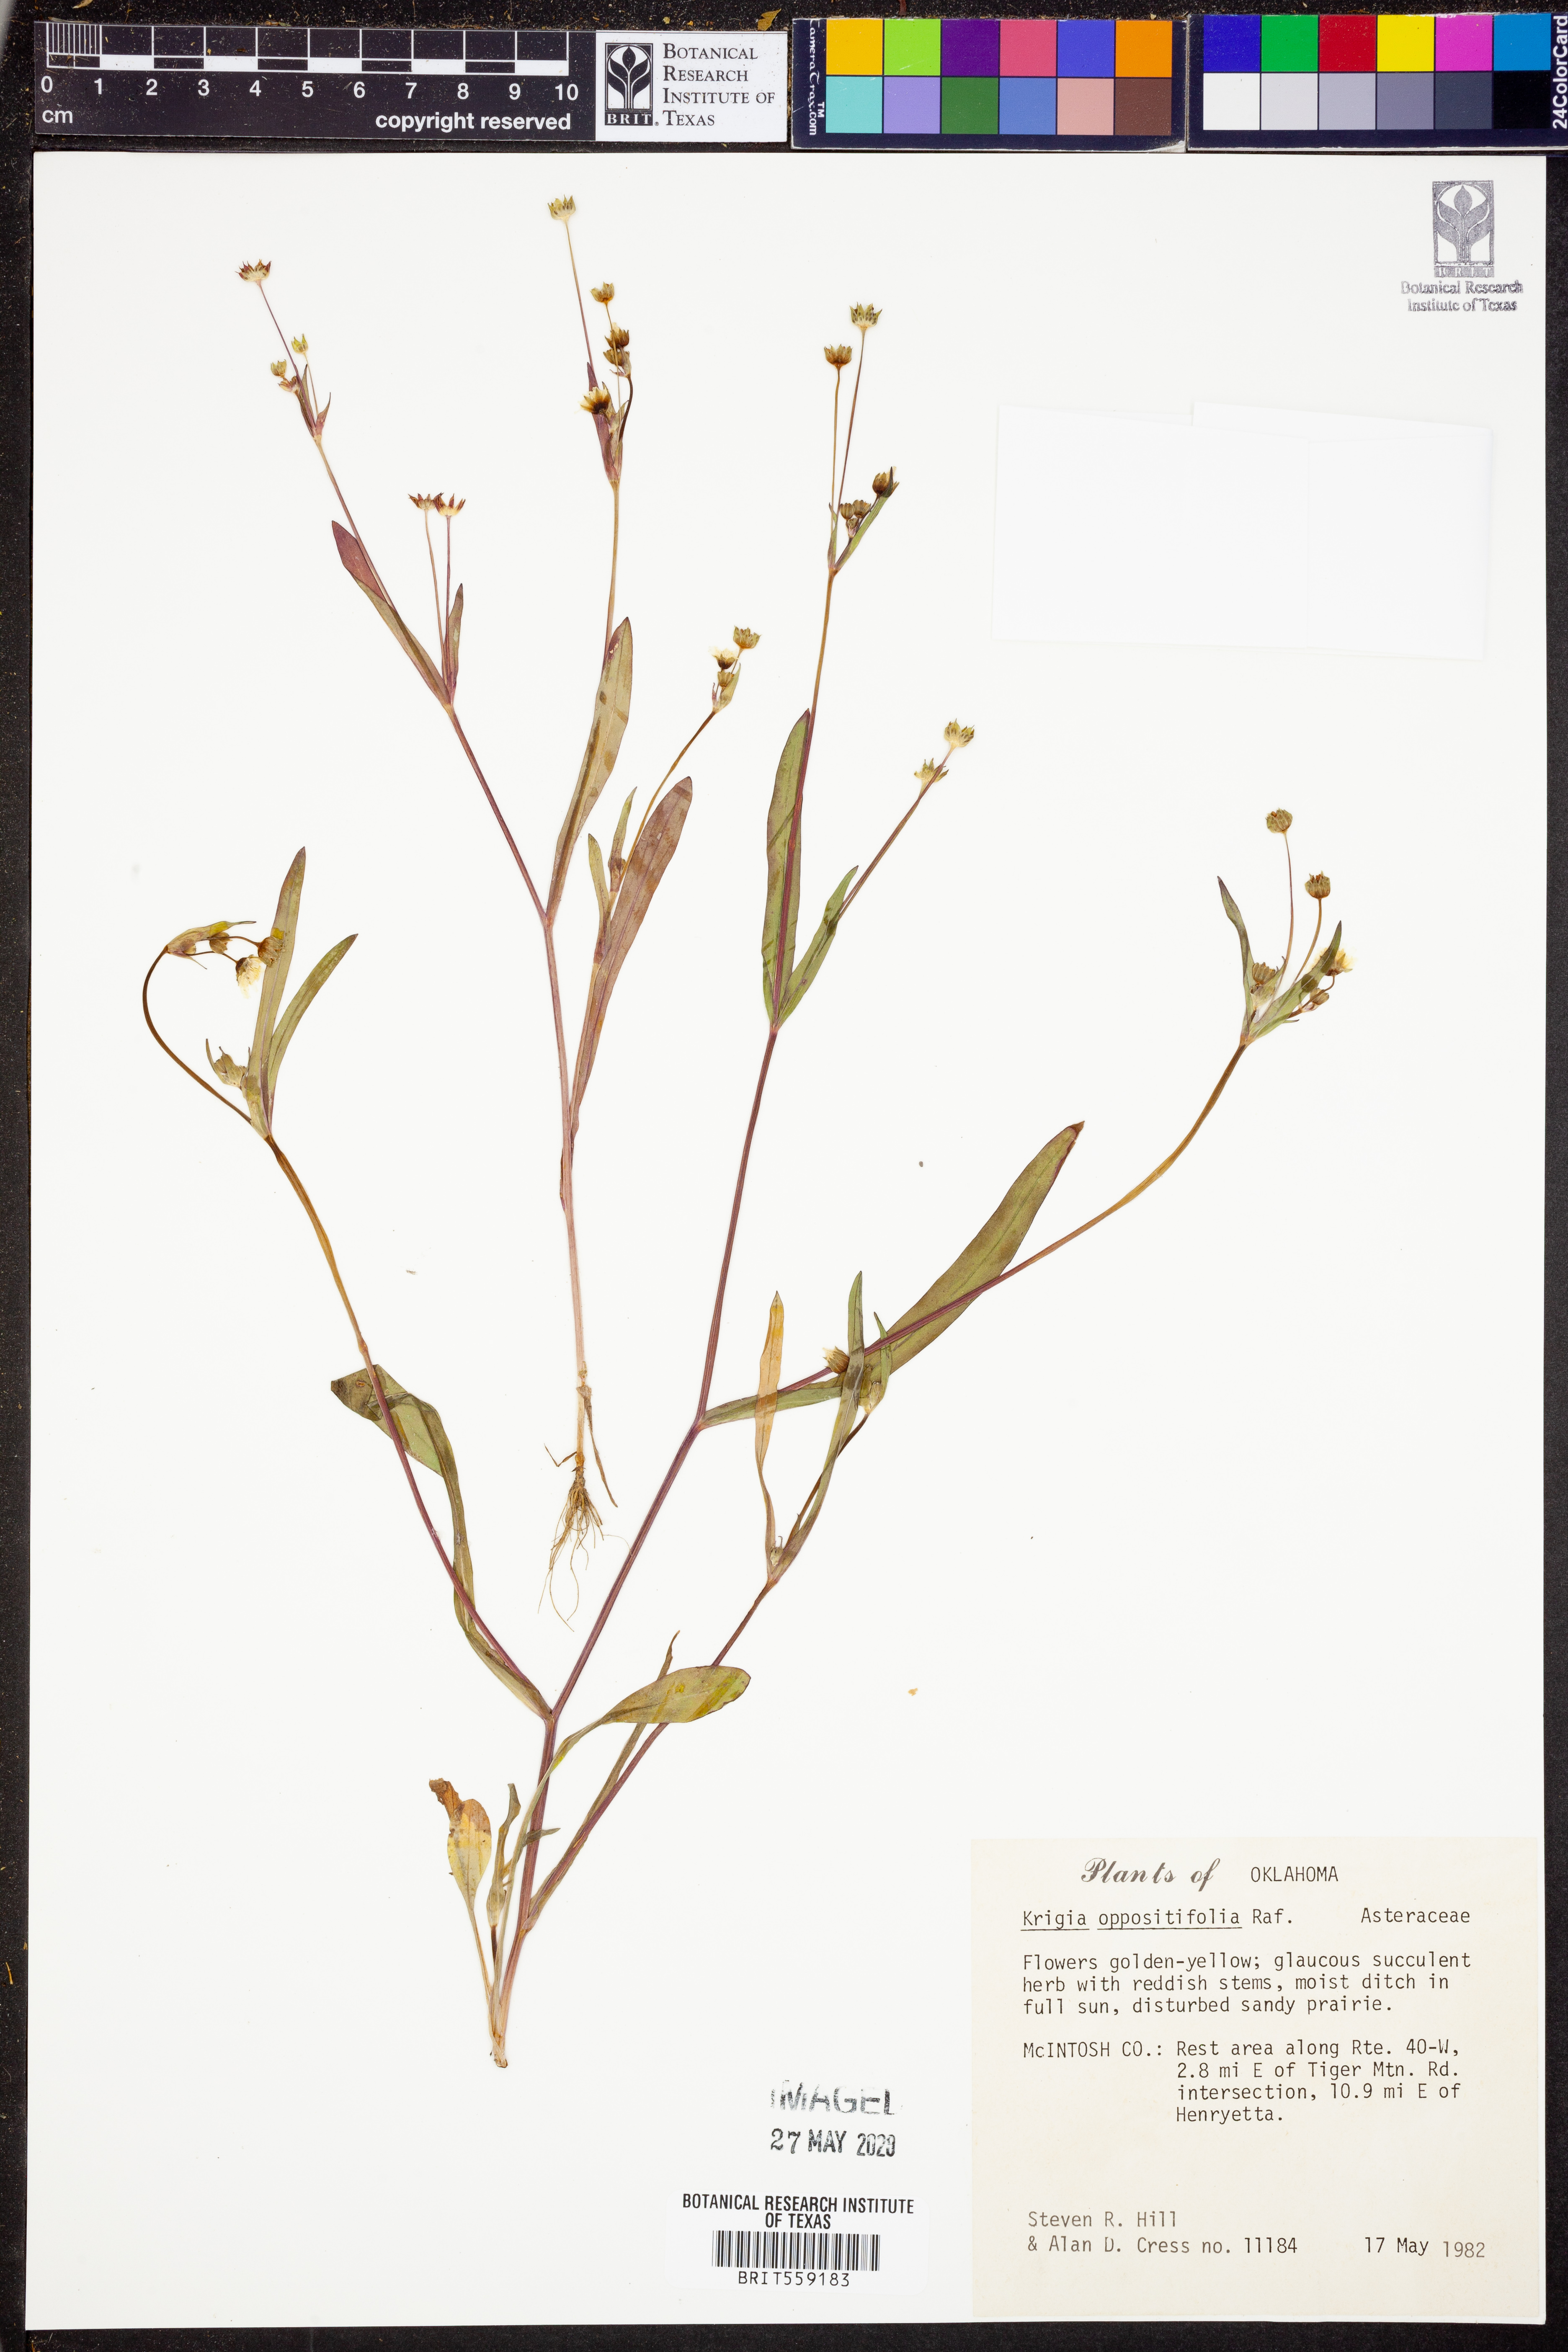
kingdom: Plantae
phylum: Tracheophyta
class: Magnoliopsida
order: Asterales
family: Asteraceae
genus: Krigia
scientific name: Krigia cespitosa
